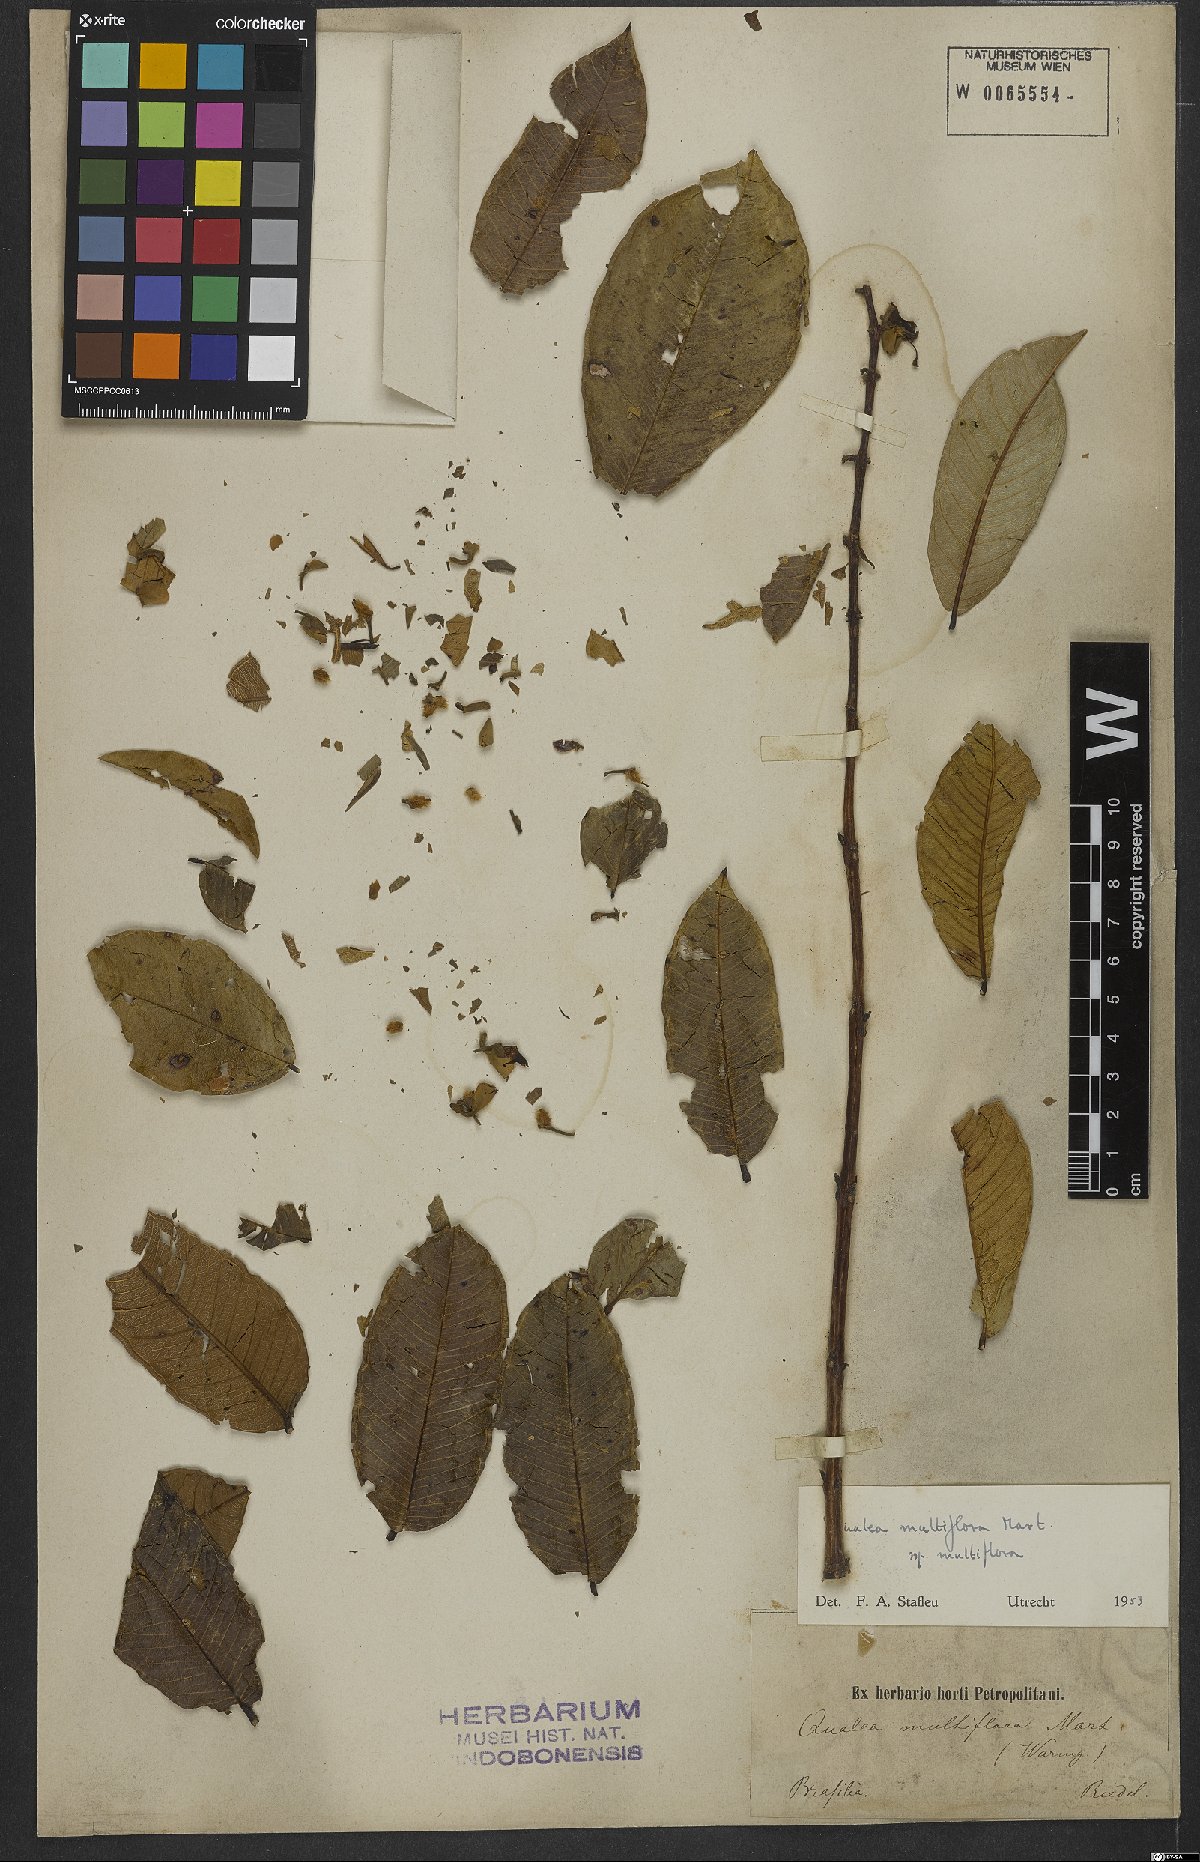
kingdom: Plantae
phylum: Tracheophyta
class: Magnoliopsida
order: Myrtales
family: Vochysiaceae
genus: Qualea
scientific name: Qualea multiflora
